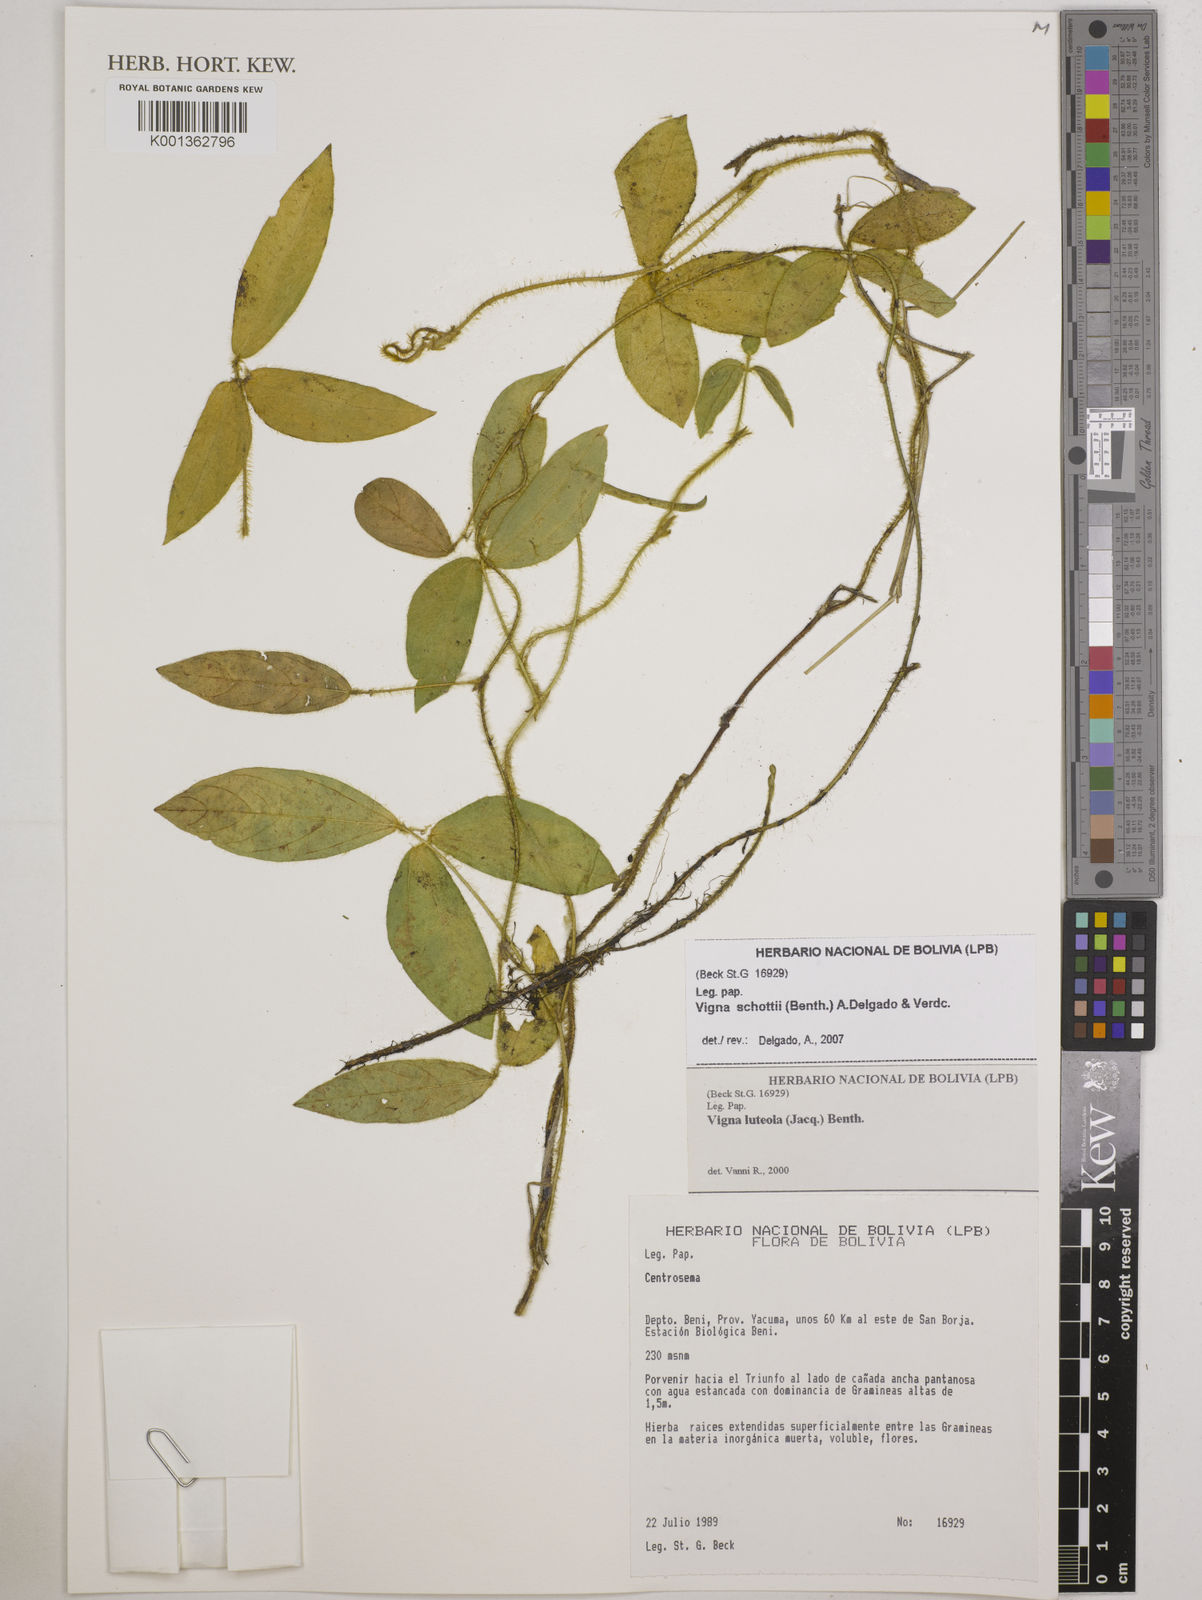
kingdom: Plantae
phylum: Tracheophyta
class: Magnoliopsida
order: Fabales
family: Fabaceae
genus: Vigna
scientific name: Vigna
